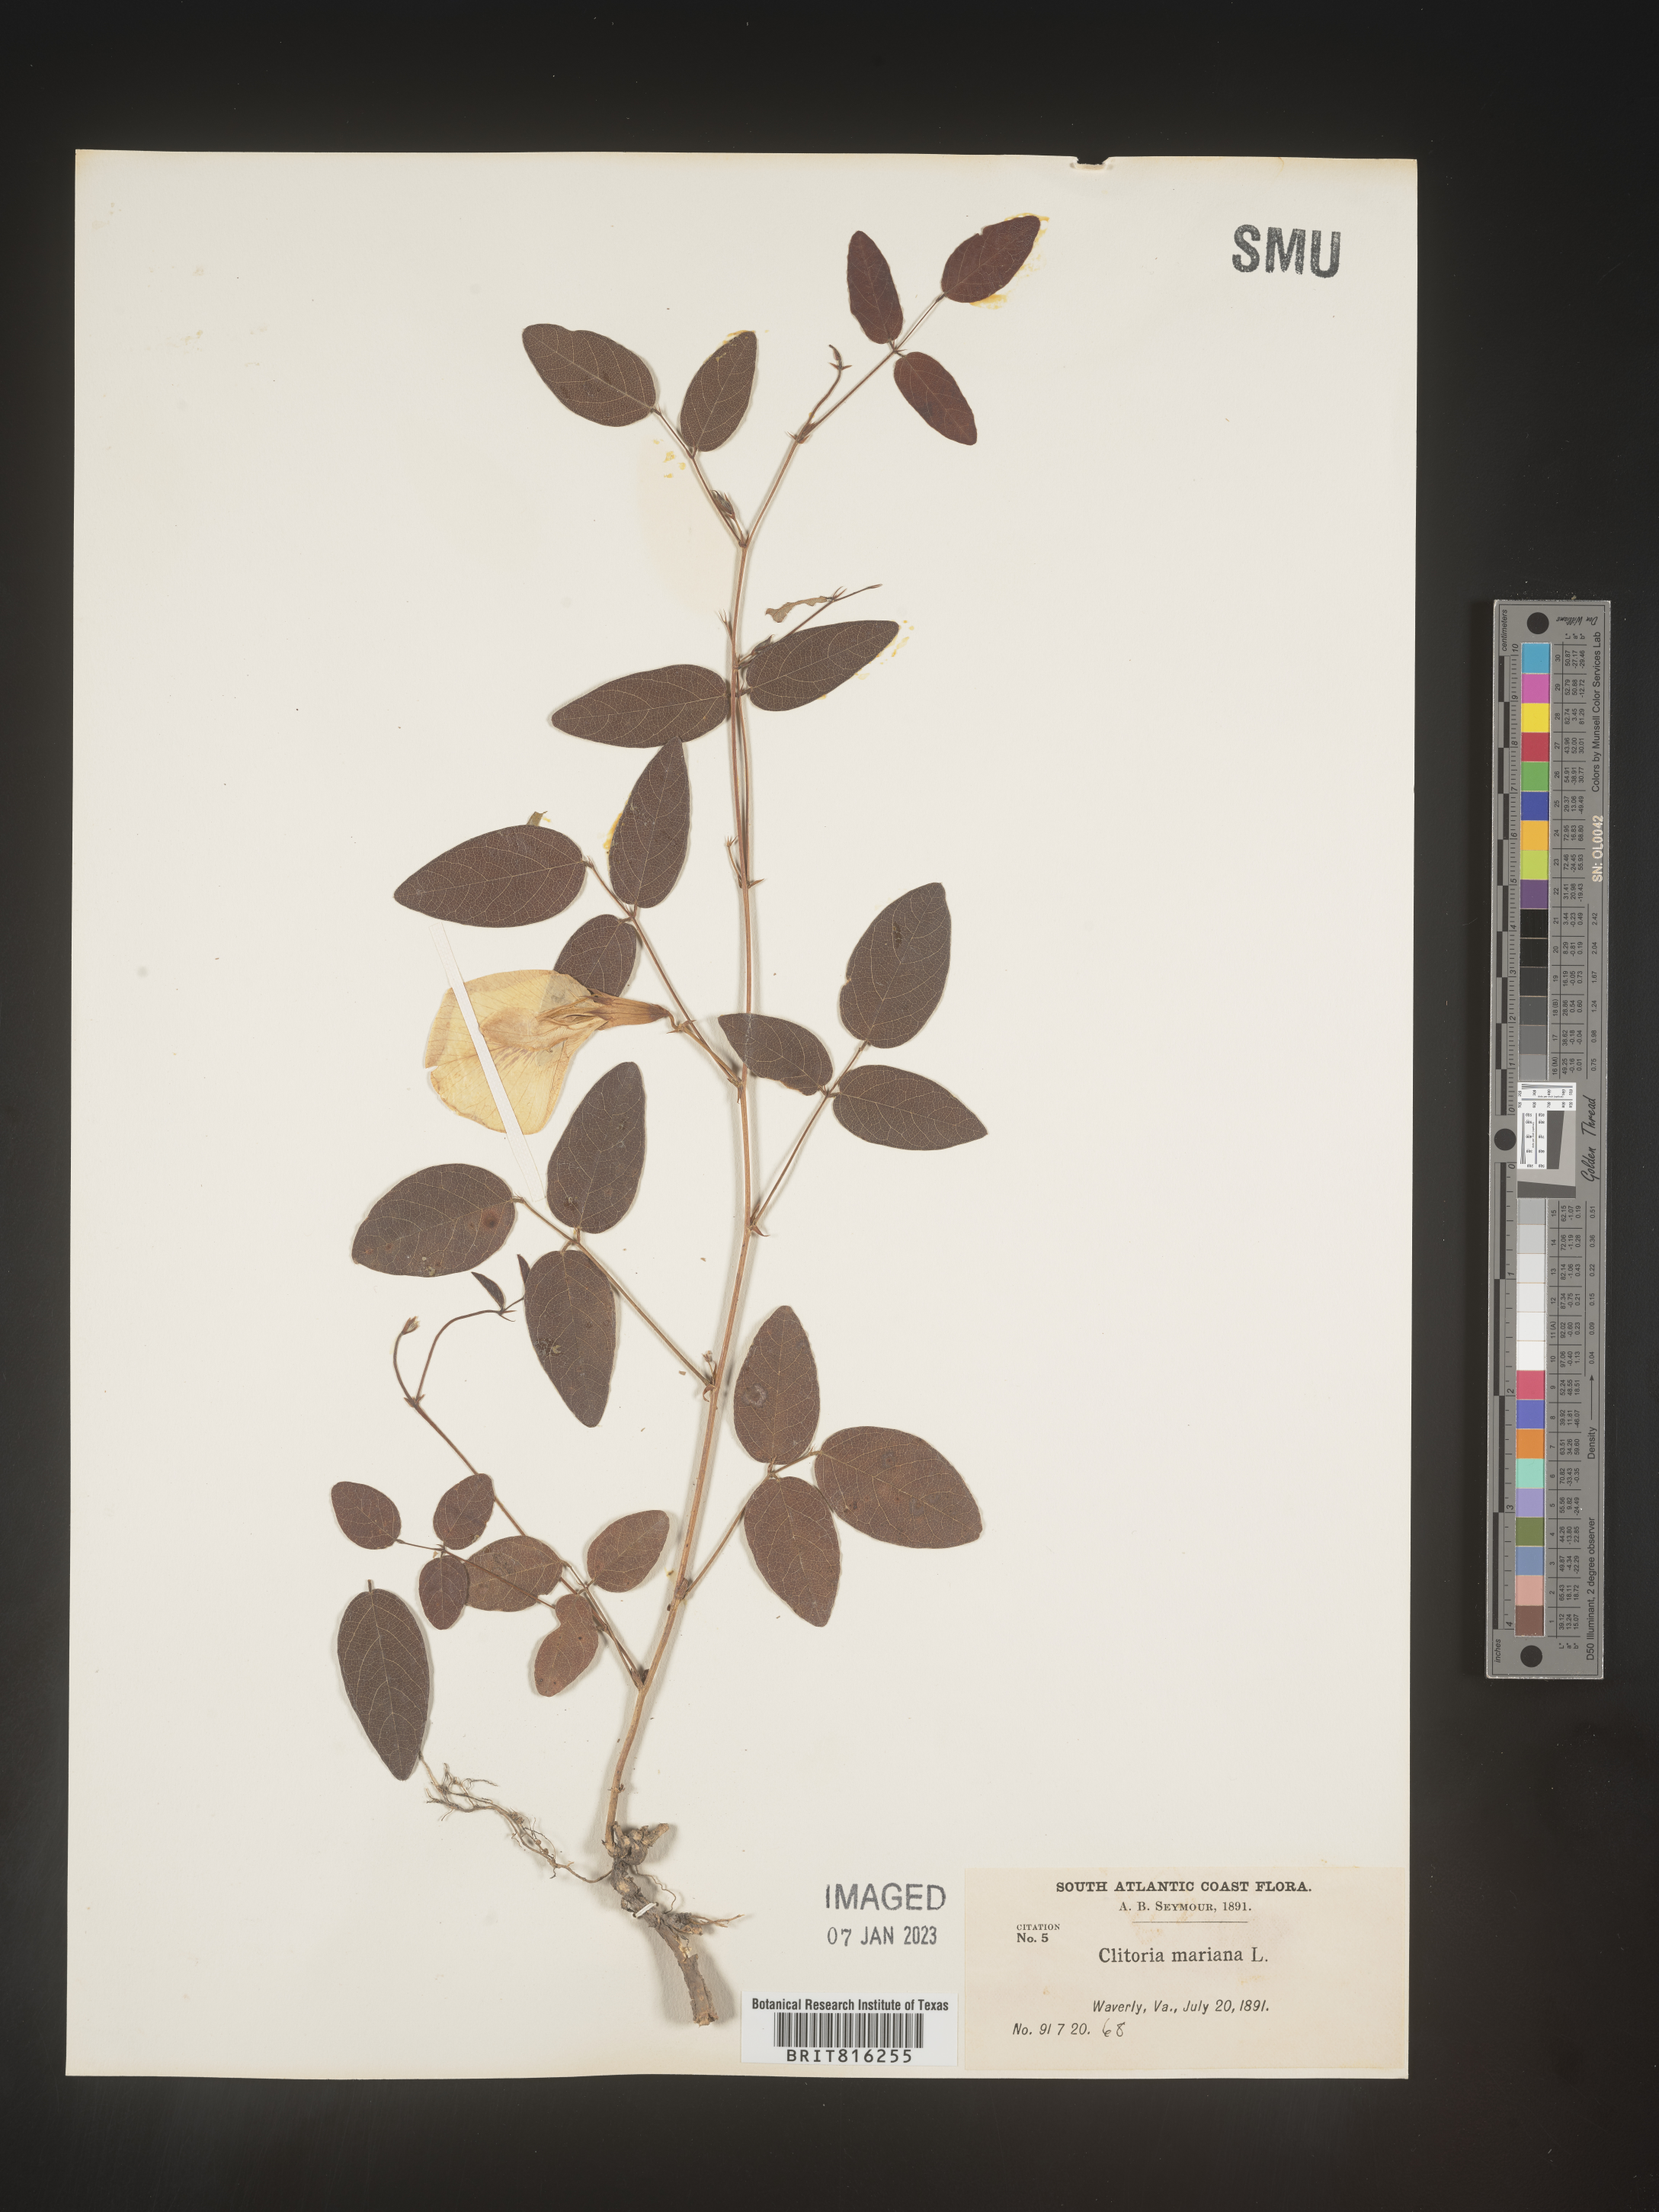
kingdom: Plantae
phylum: Tracheophyta
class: Magnoliopsida
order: Fabales
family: Fabaceae
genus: Clitoria
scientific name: Clitoria mariana
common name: Butterfly-pea
